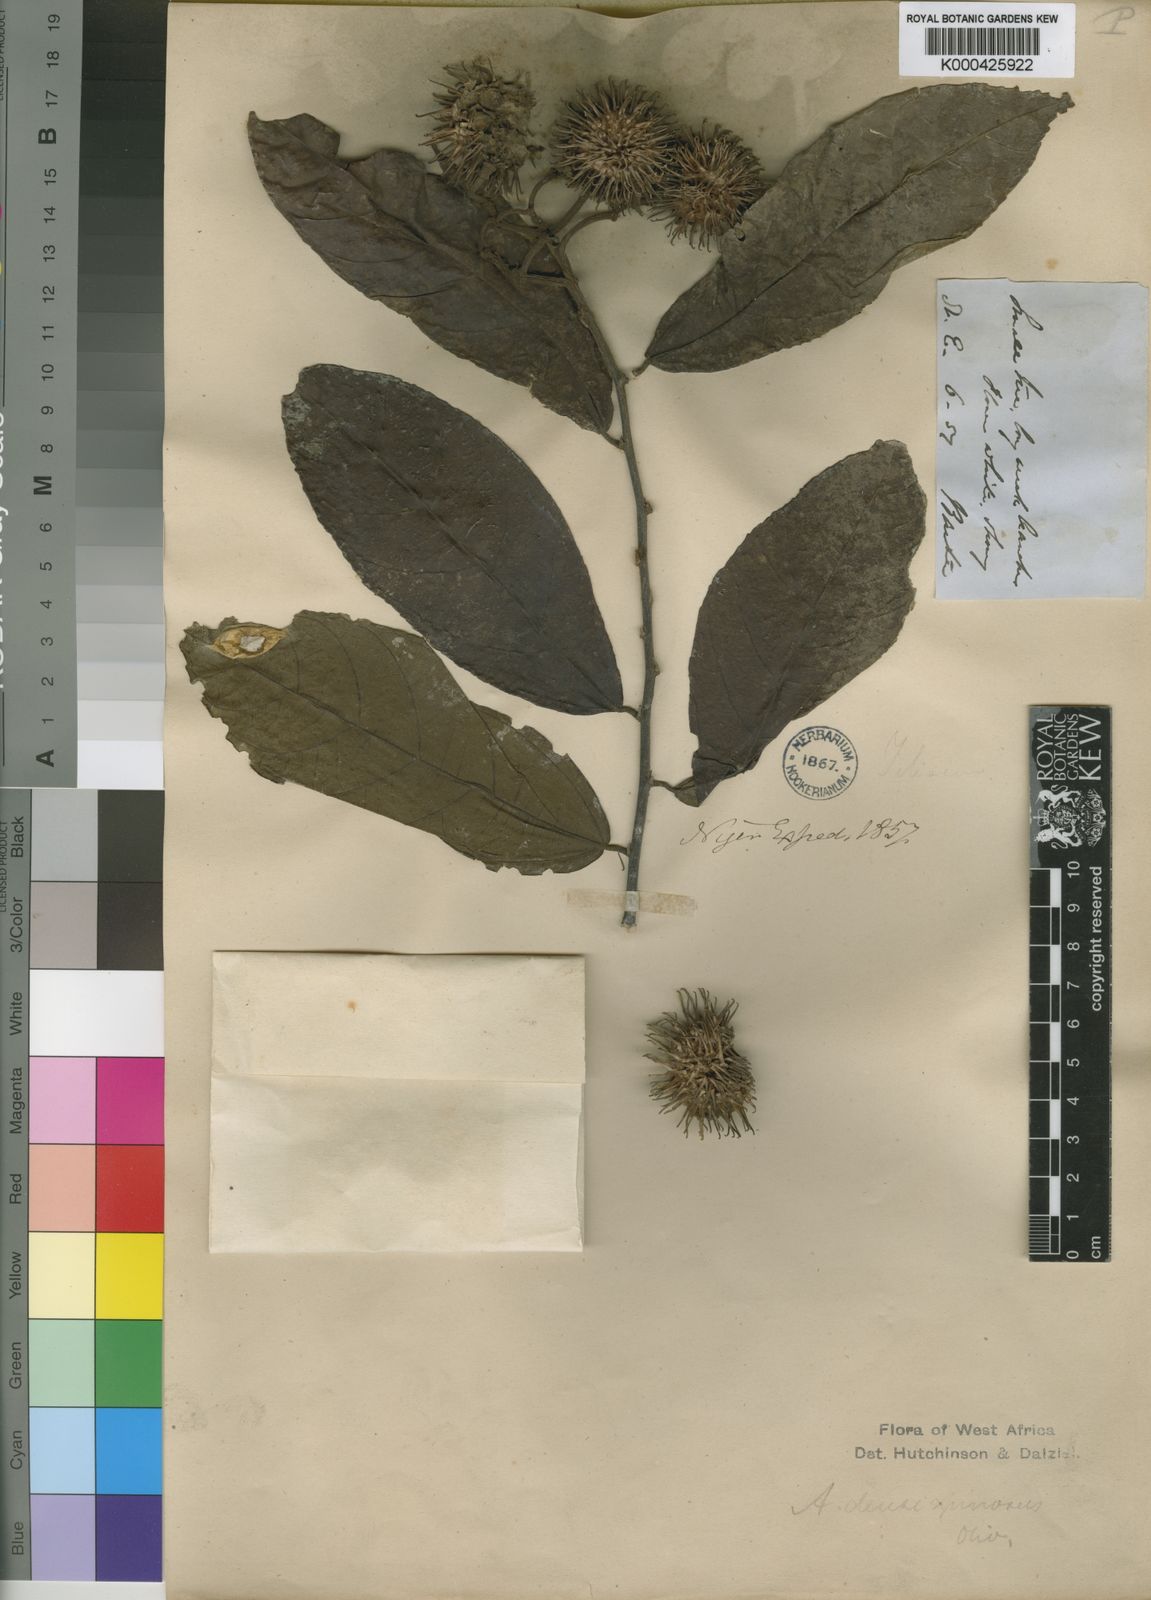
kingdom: Plantae
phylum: Tracheophyta
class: Magnoliopsida
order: Malvales
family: Malvaceae
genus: Ancistrocarpus
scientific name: Ancistrocarpus densispinosus
